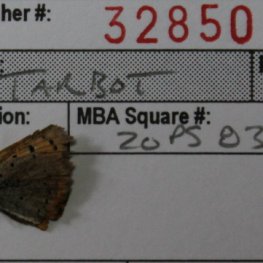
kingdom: Animalia
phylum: Arthropoda
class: Insecta
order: Lepidoptera
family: Lycaenidae
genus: Lycaena
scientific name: Lycaena phlaeas
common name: American Copper
